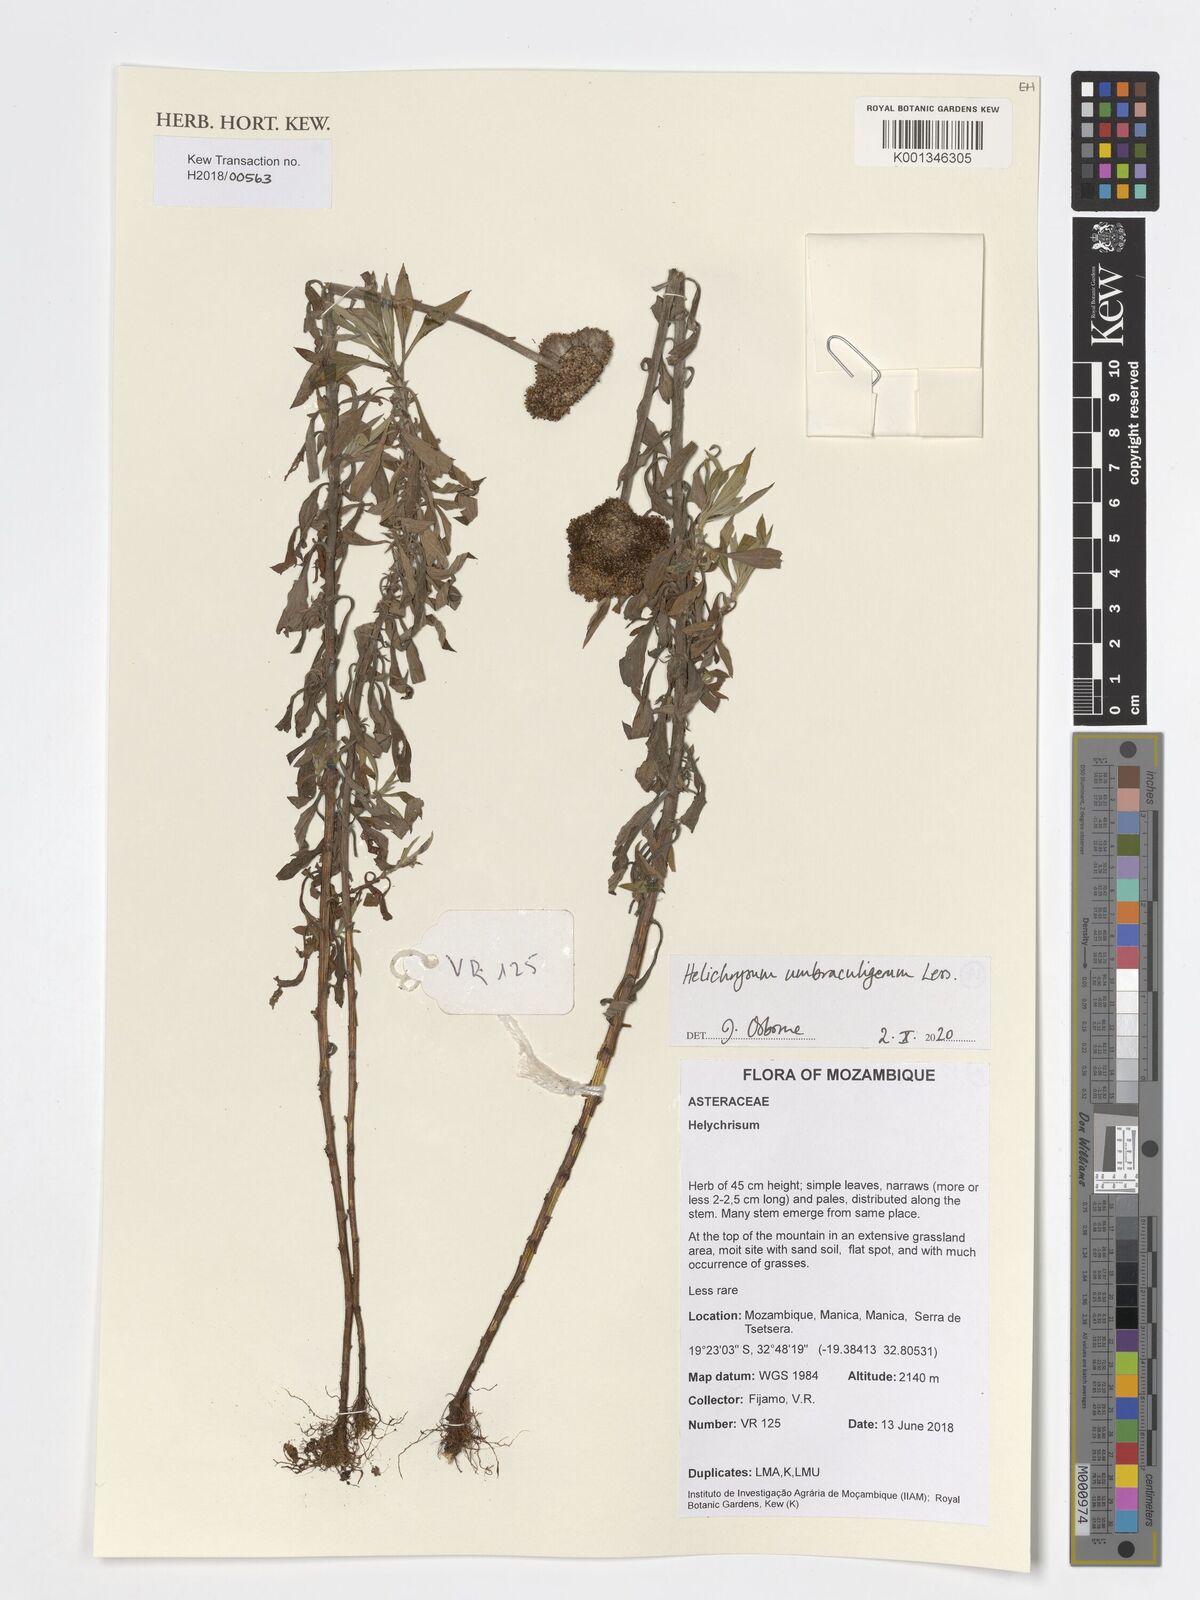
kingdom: Plantae
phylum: Tracheophyta
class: Magnoliopsida
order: Asterales
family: Asteraceae
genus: Helichrysum
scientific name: Helichrysum umbraculigerum
